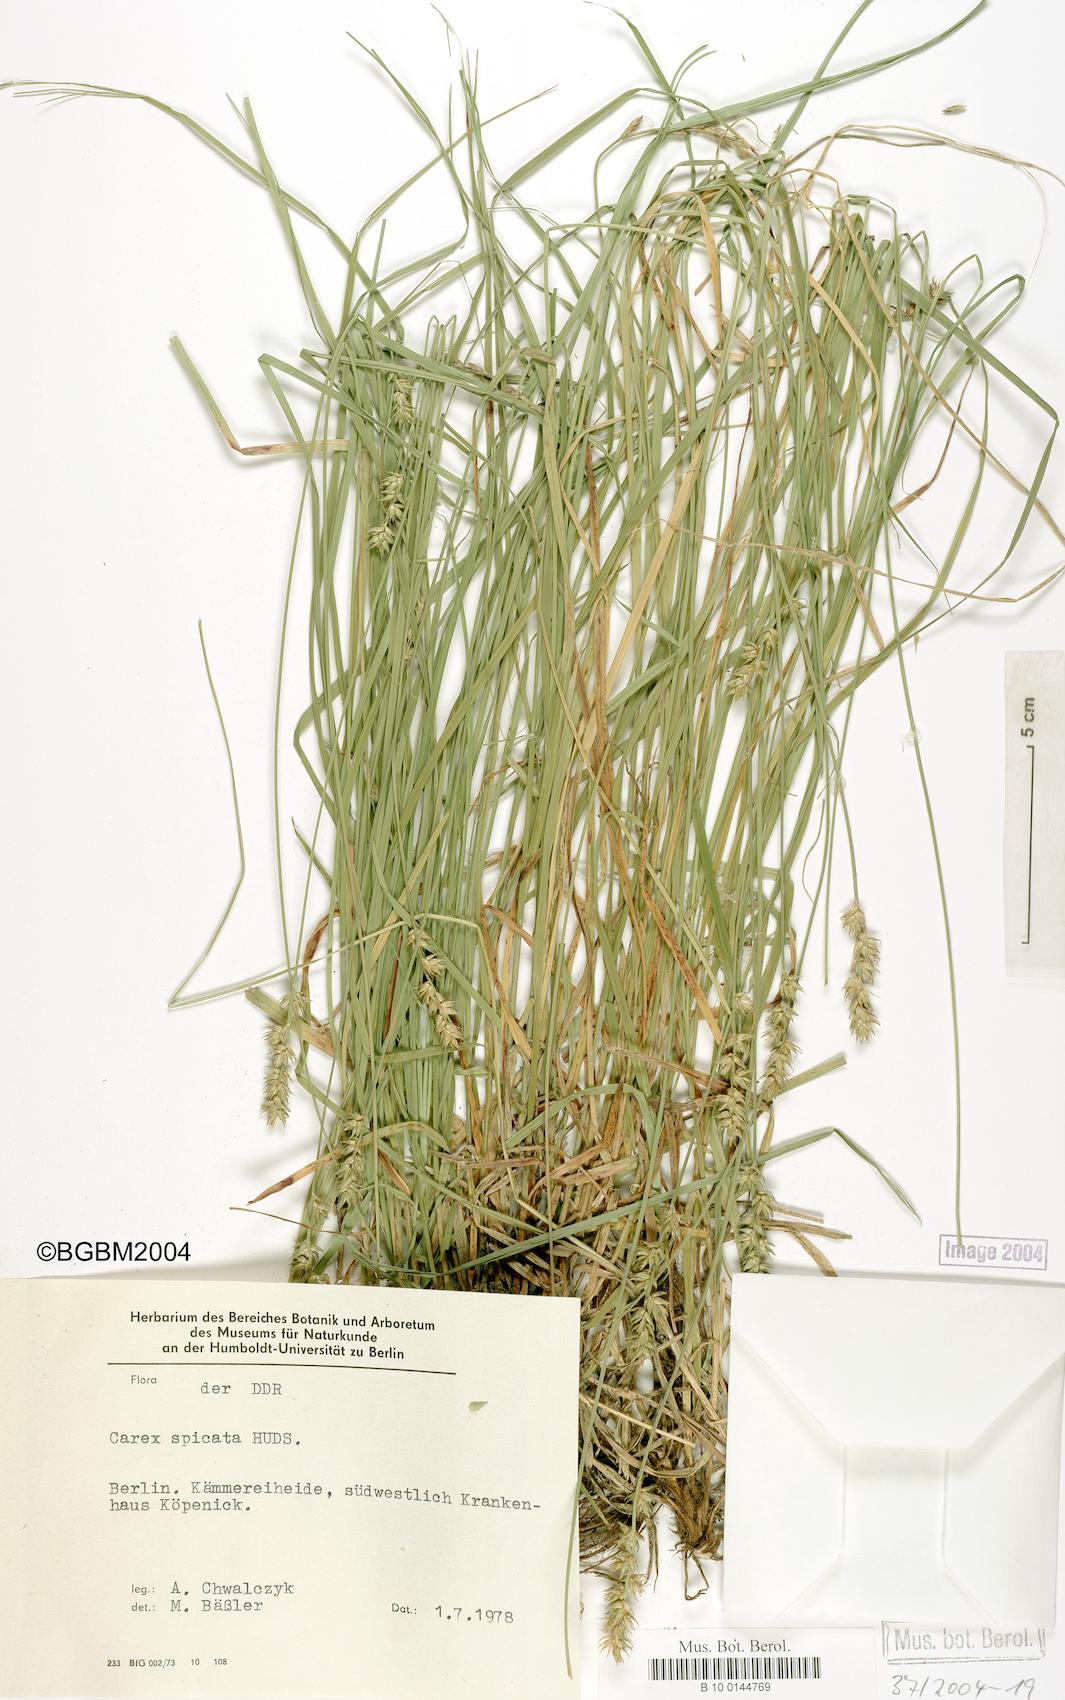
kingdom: Plantae
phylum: Tracheophyta
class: Liliopsida
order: Poales
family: Cyperaceae
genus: Carex
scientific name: Carex spicata
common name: Spiked sedge
